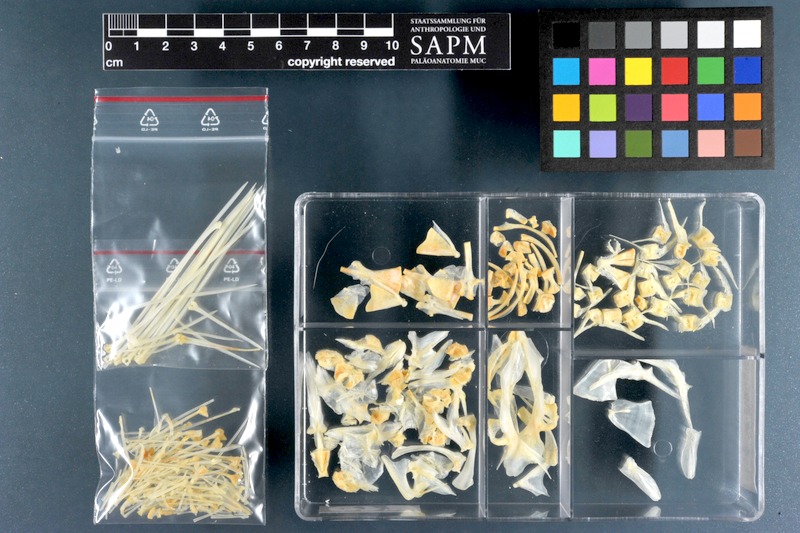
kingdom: Animalia
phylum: Chordata
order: Scorpaeniformes
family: Scorpaenidae
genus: Pterois
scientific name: Pterois volitans
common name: Lionfish
